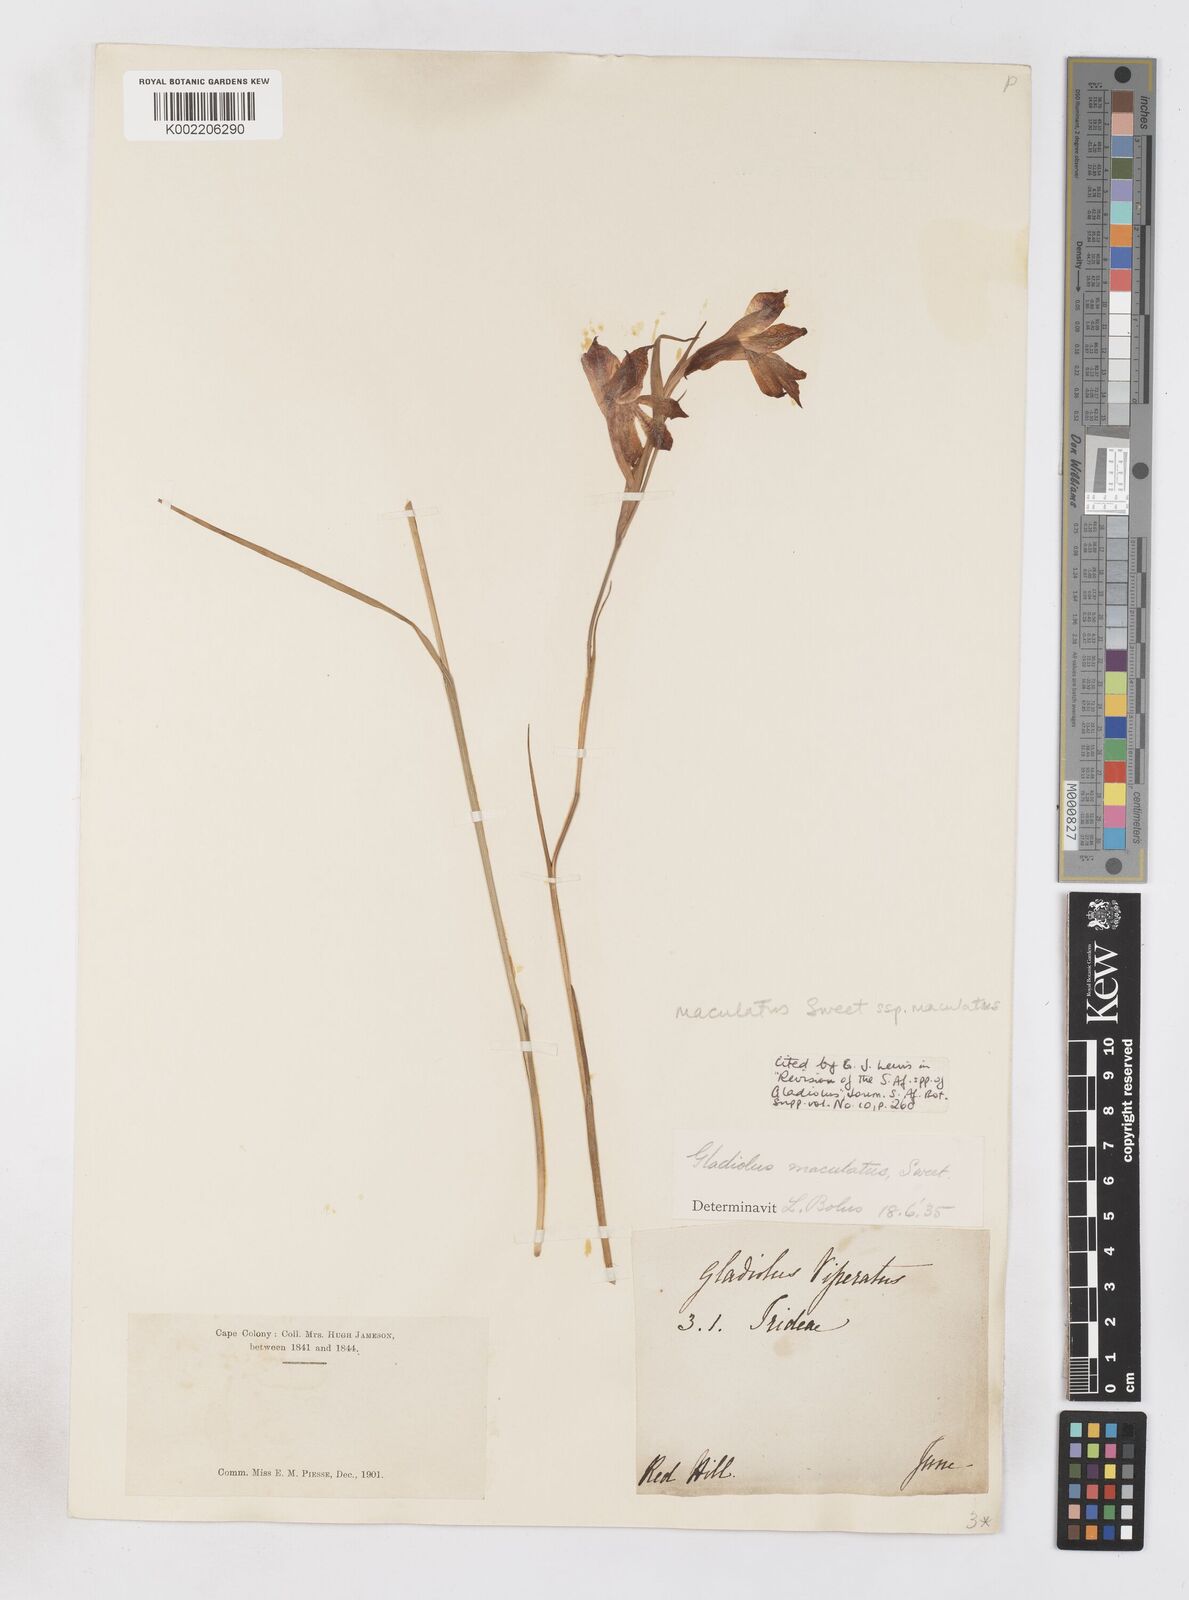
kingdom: Plantae
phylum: Tracheophyta
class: Liliopsida
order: Asparagales
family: Iridaceae
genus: Gladiolus
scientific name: Gladiolus maculatus
